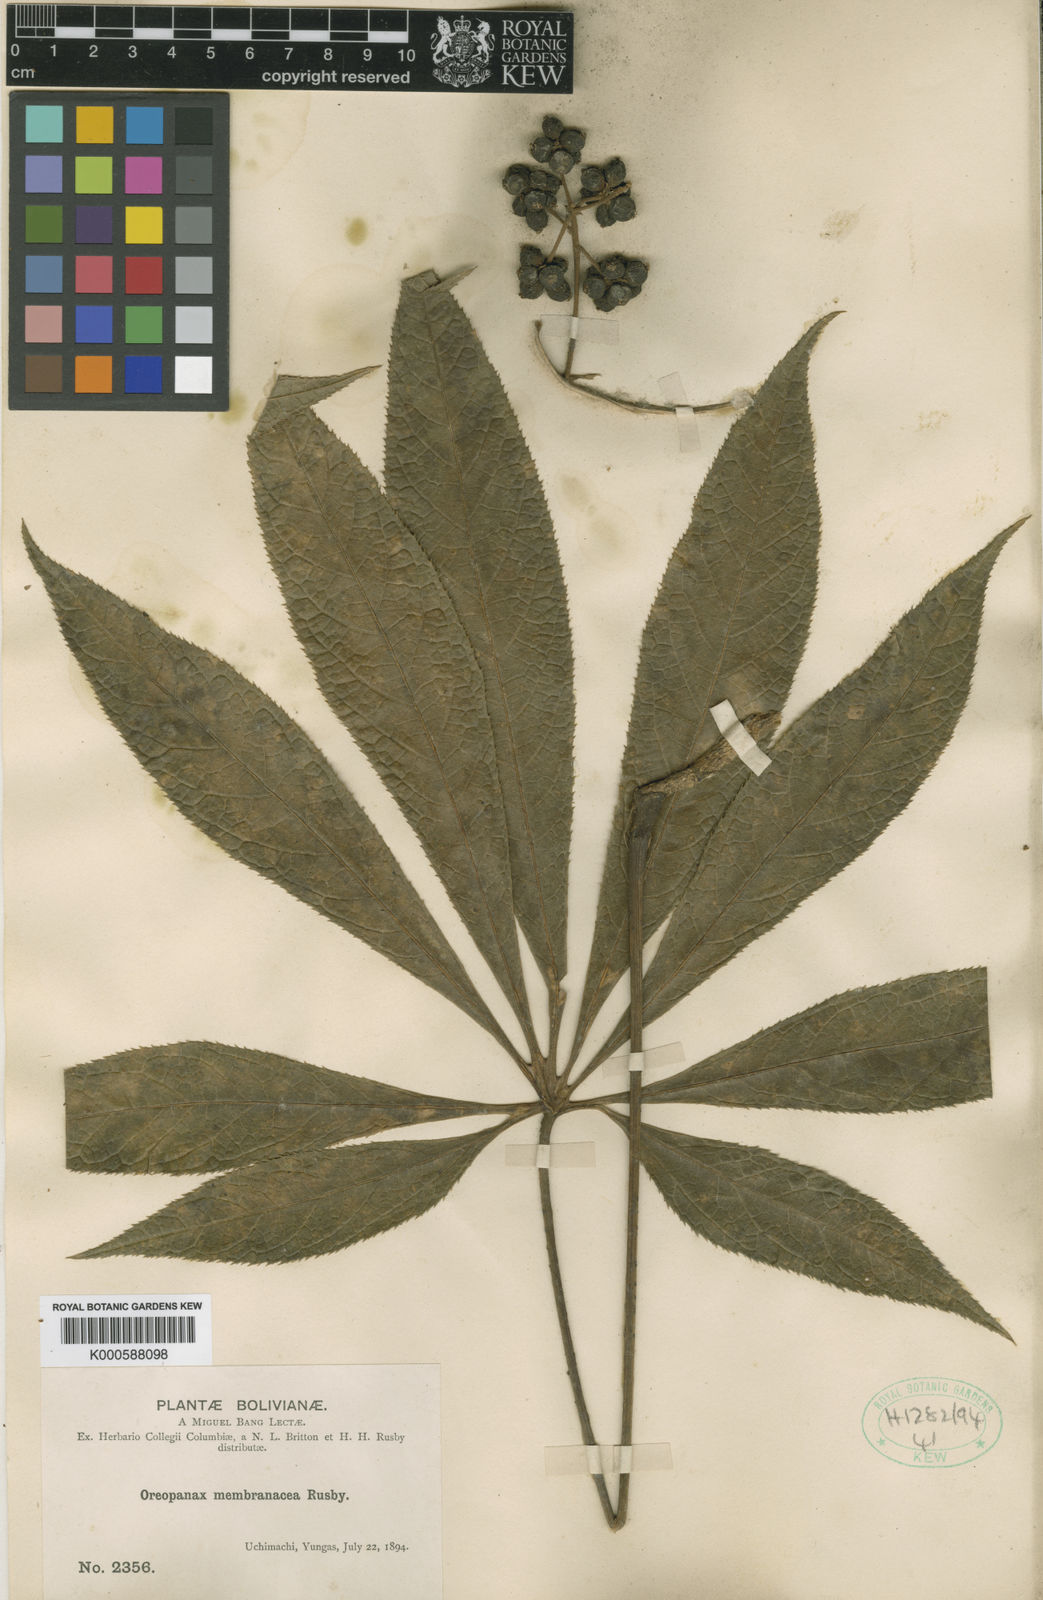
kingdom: Plantae
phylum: Tracheophyta
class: Magnoliopsida
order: Apiales
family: Araliaceae
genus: Oreopanax
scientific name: Oreopanax membranaceus
